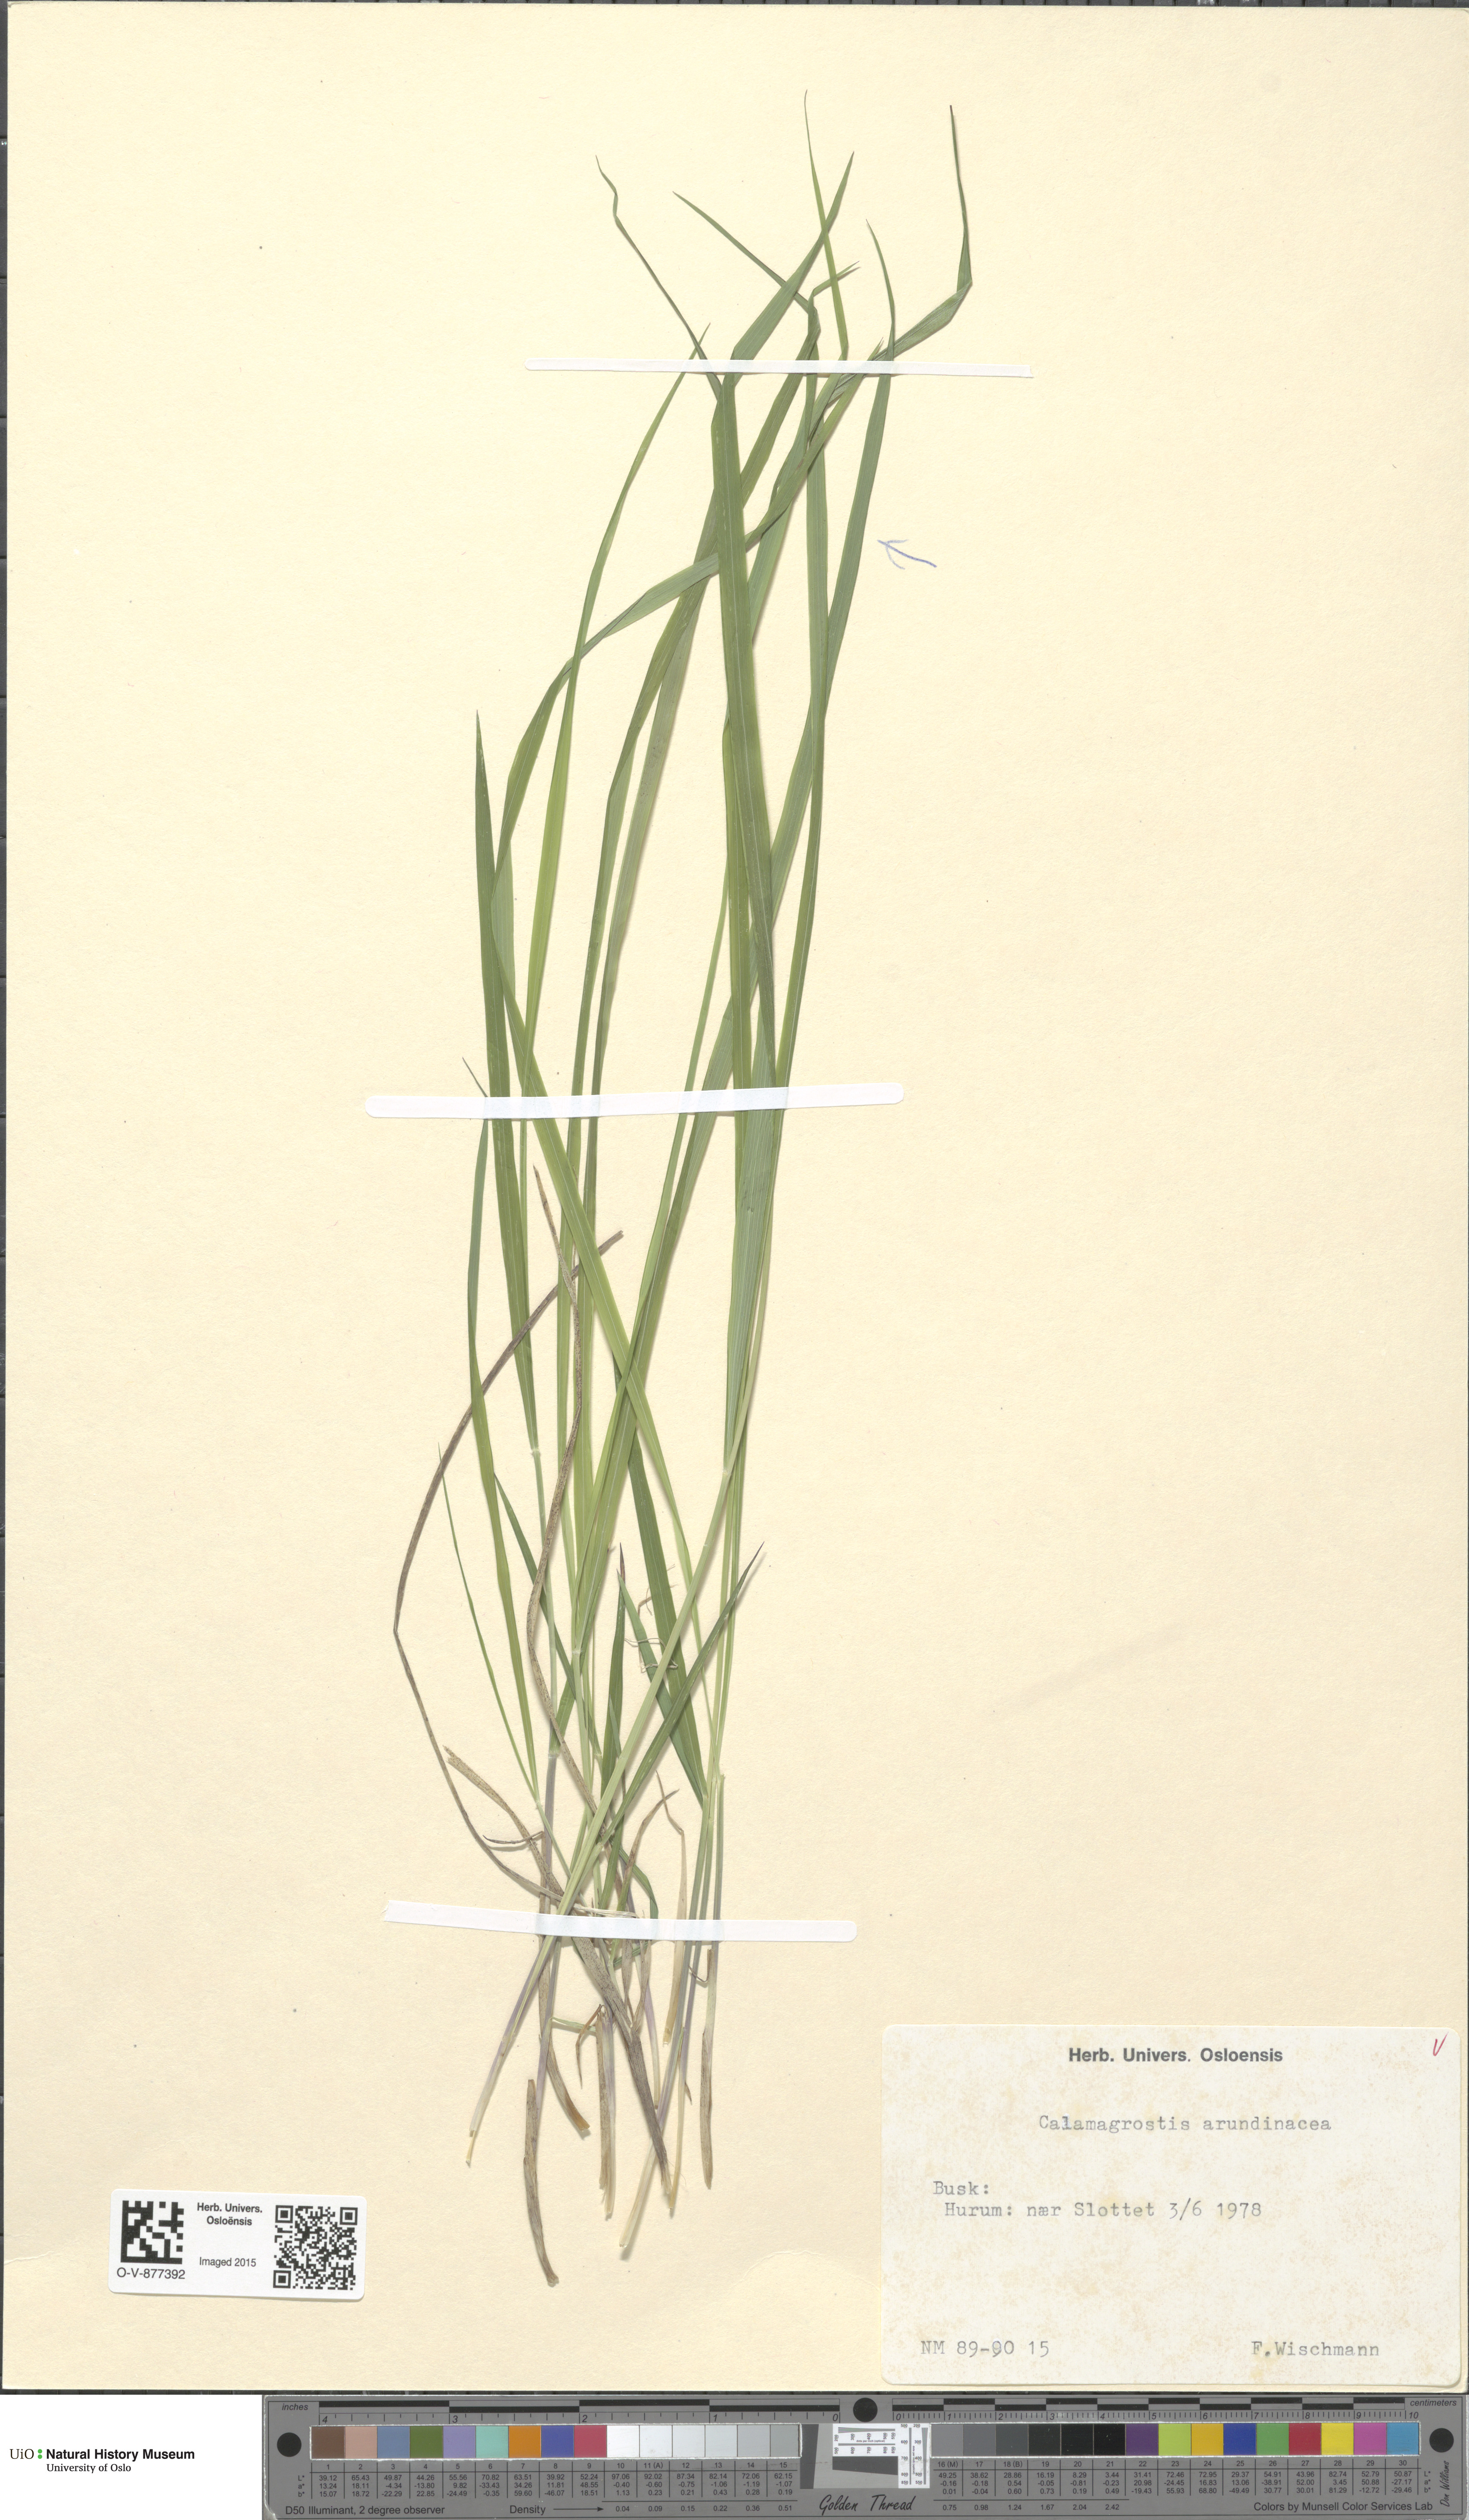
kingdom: Plantae
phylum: Tracheophyta
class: Liliopsida
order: Poales
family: Poaceae
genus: Calamagrostis
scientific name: Calamagrostis arundinacea
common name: Metskastik
